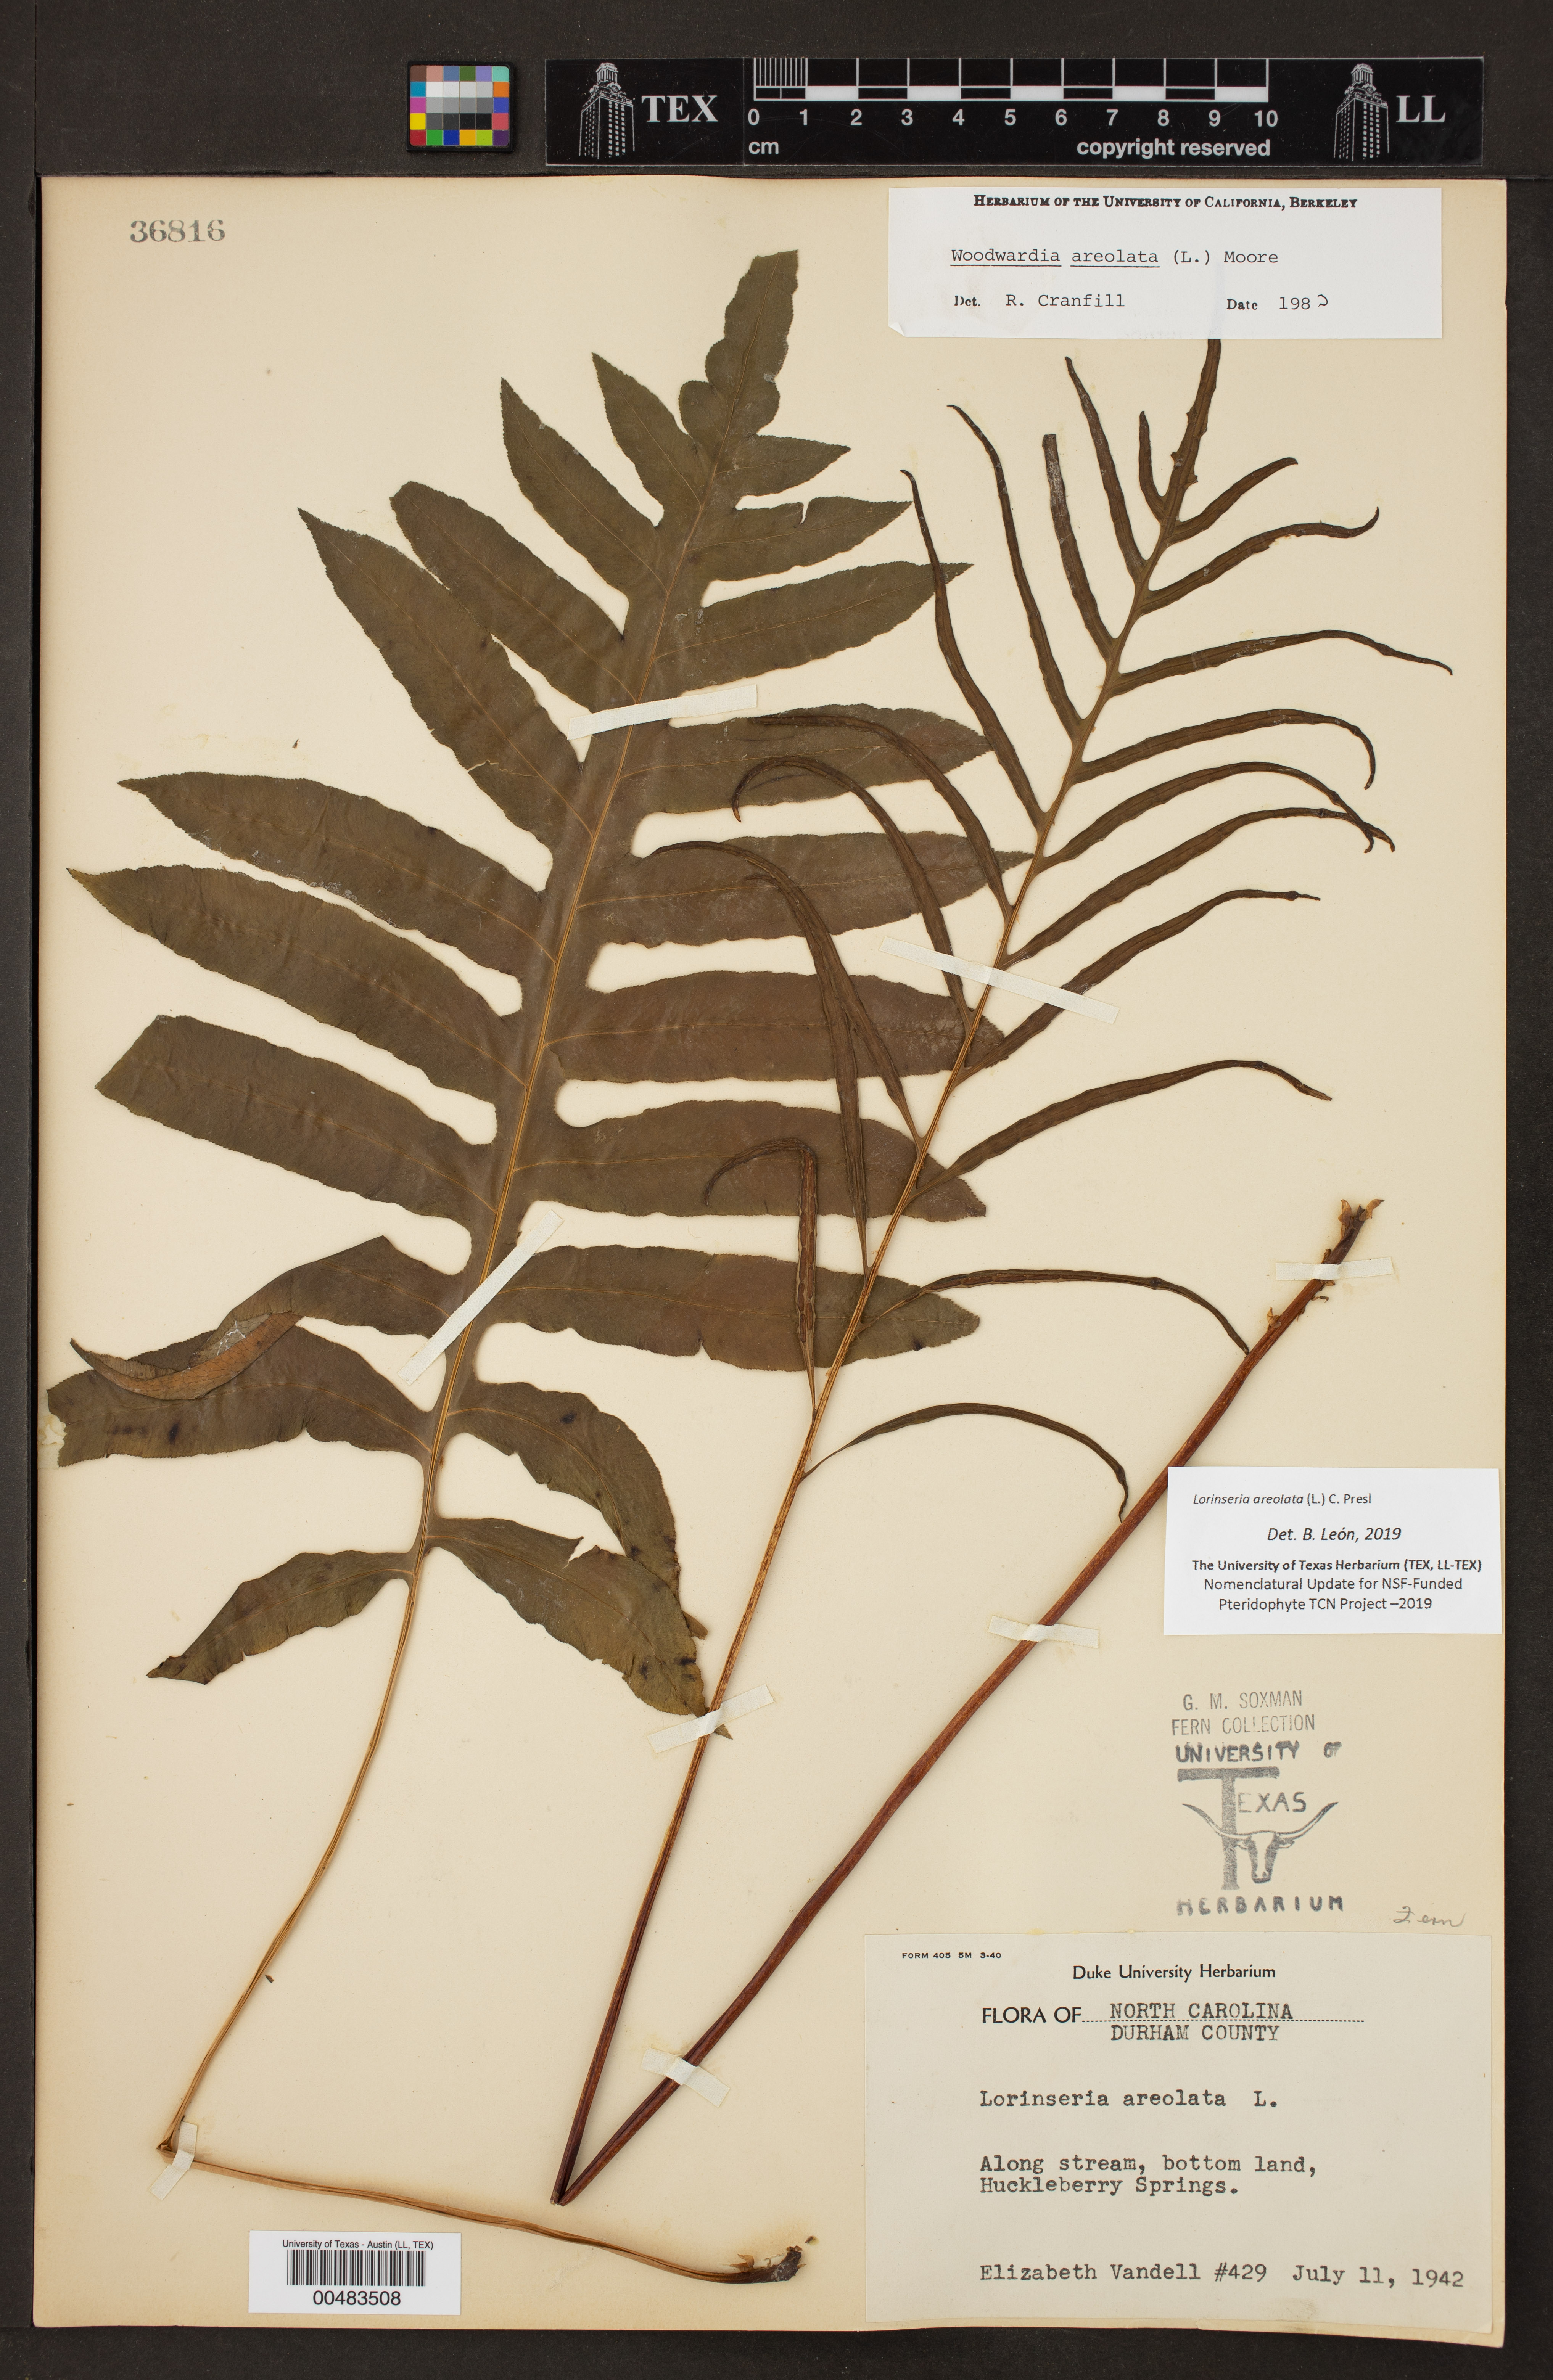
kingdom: Plantae
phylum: Tracheophyta
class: Polypodiopsida
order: Polypodiales
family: Blechnaceae
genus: Lorinseria
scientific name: Lorinseria areolata
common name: Dwarf chain fern
